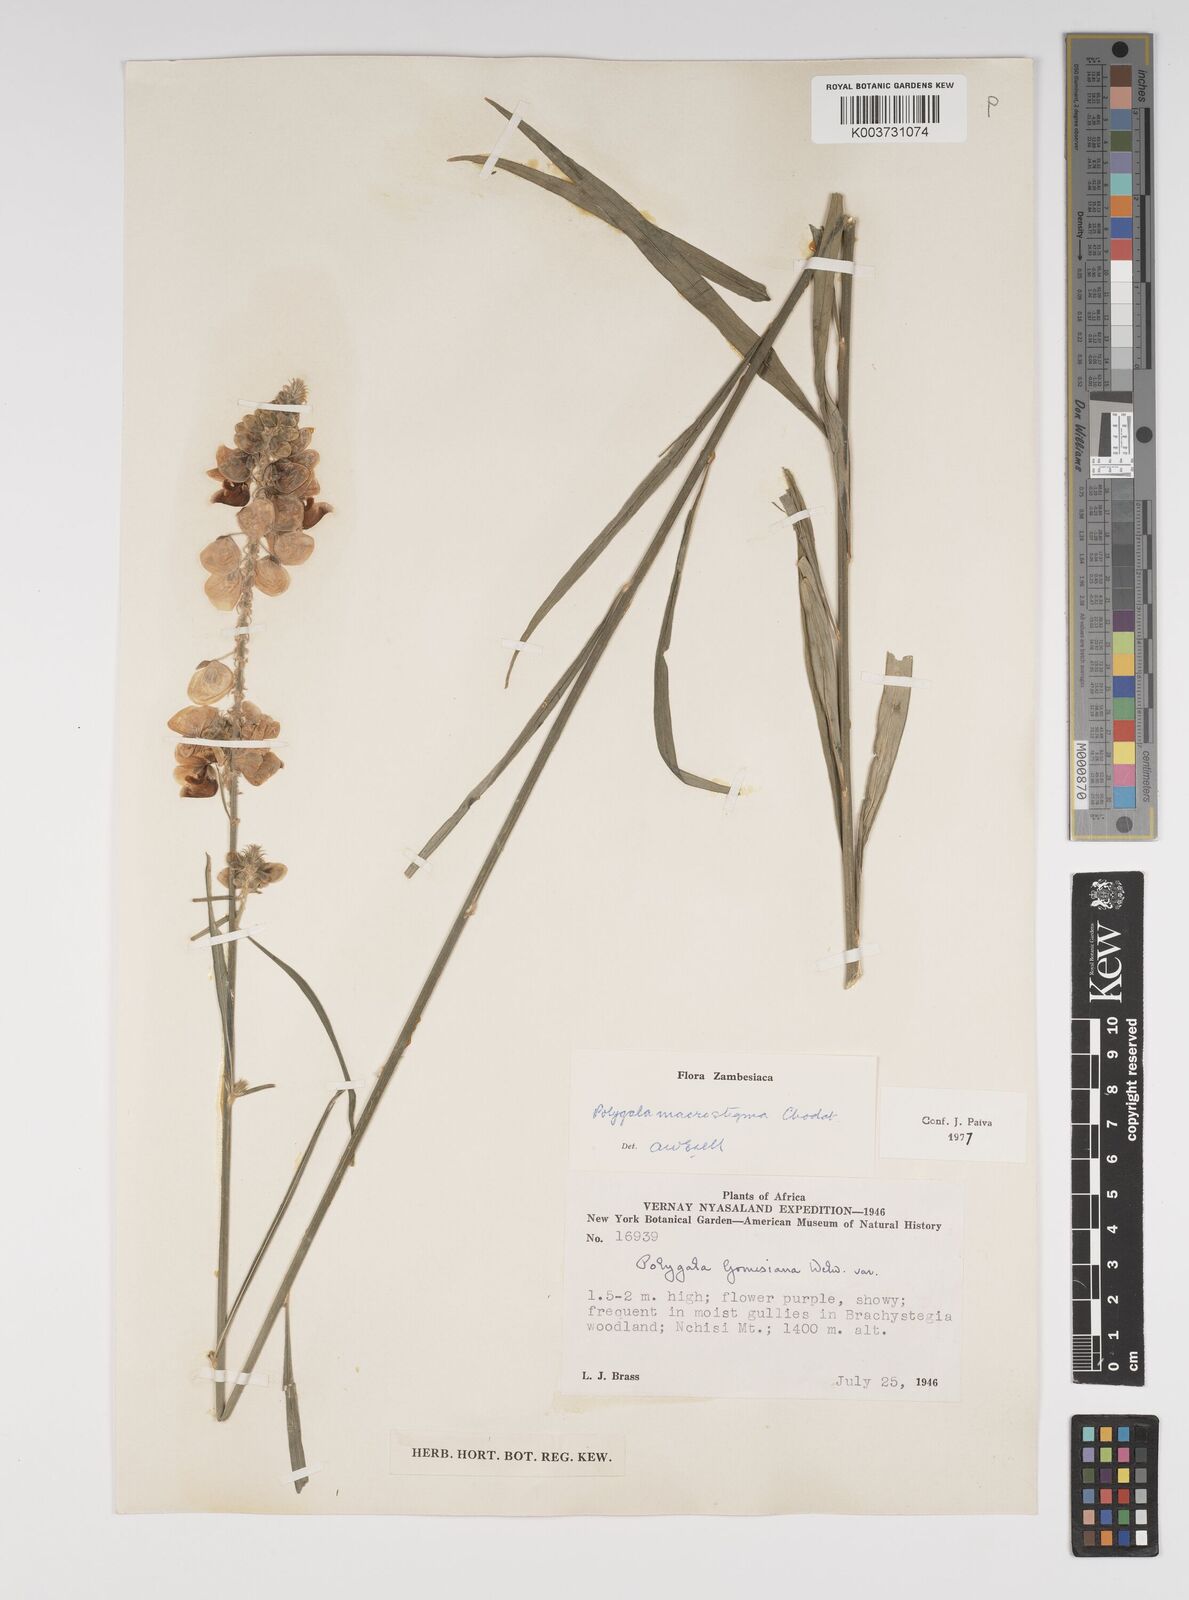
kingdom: Plantae
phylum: Tracheophyta
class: Magnoliopsida
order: Fabales
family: Polygalaceae
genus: Polygala
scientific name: Polygala macrostigma
